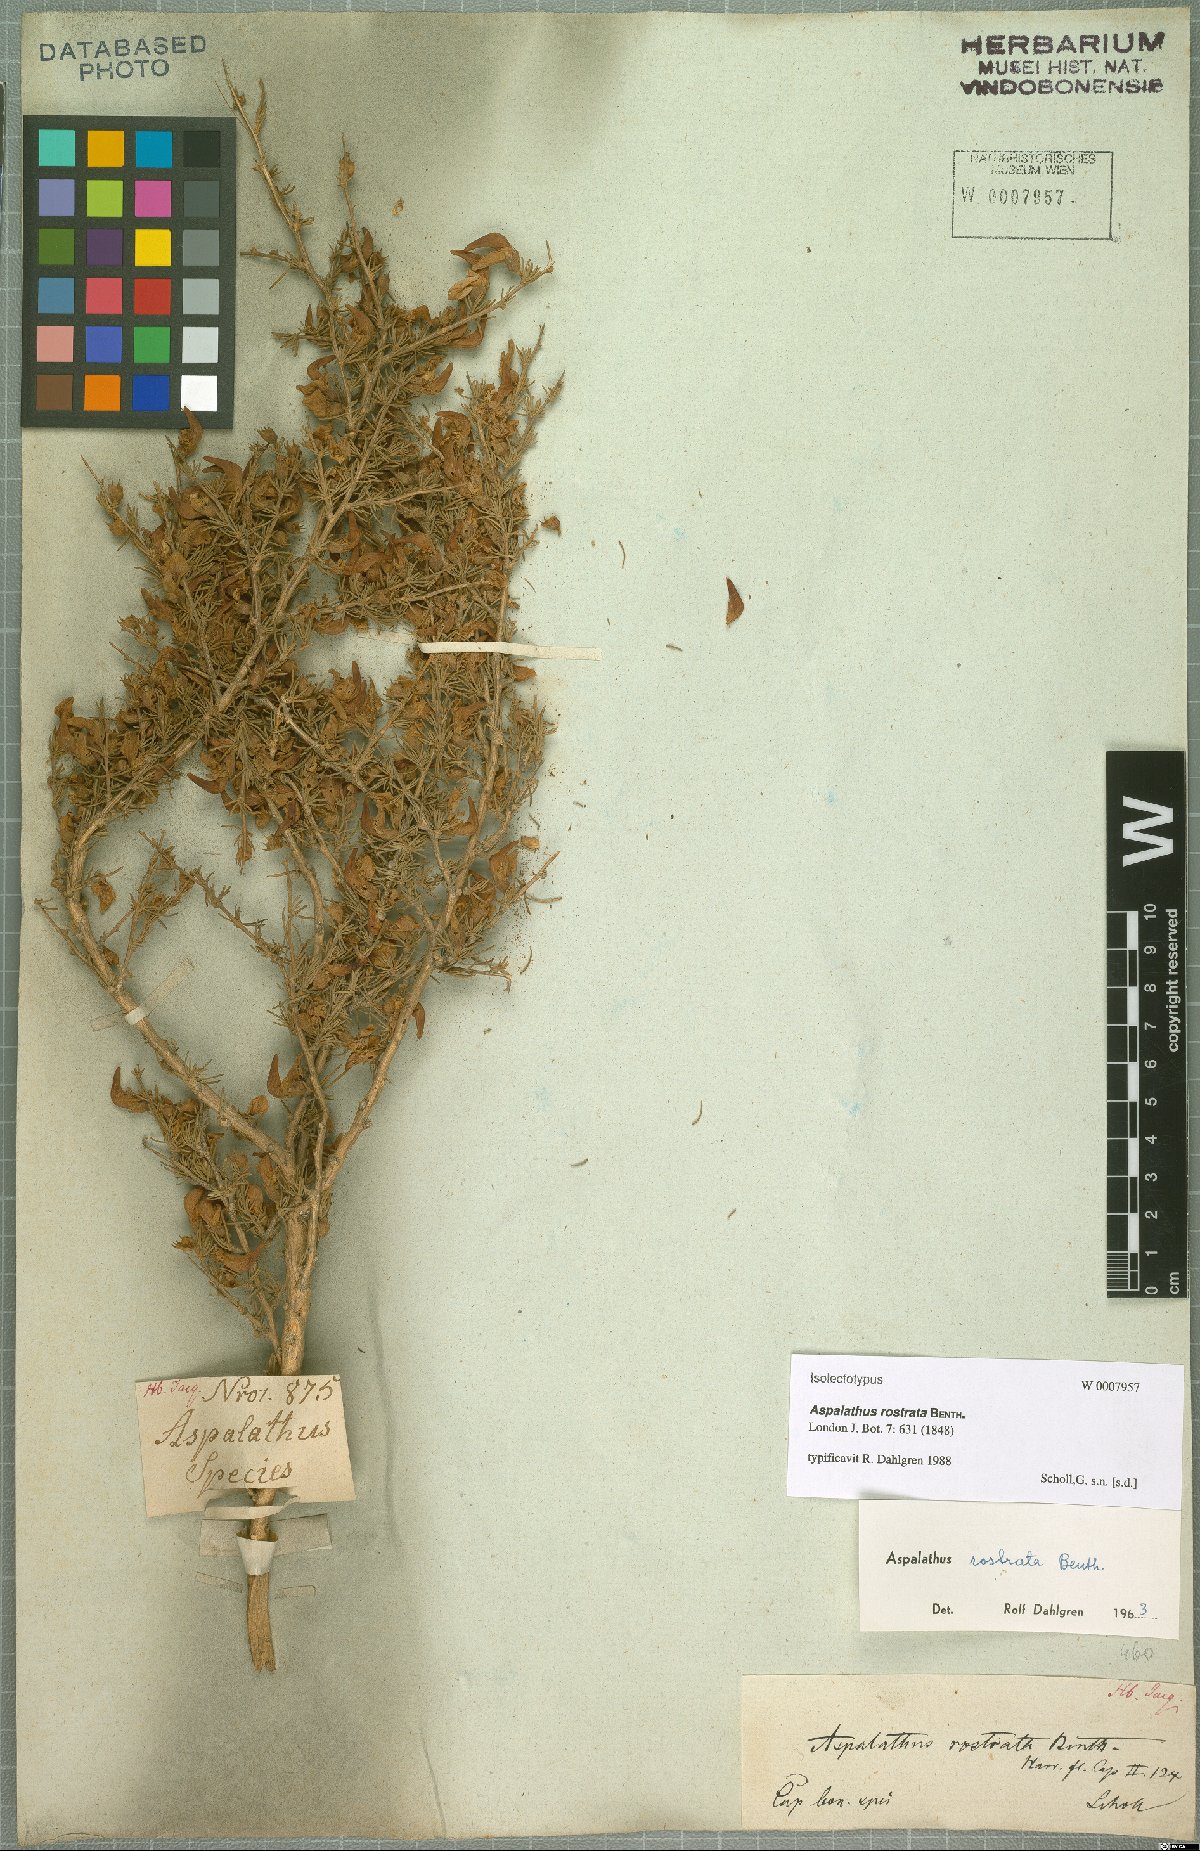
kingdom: Plantae
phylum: Tracheophyta
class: Magnoliopsida
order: Fabales
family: Fabaceae
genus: Aspalathus
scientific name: Aspalathus rostrata
